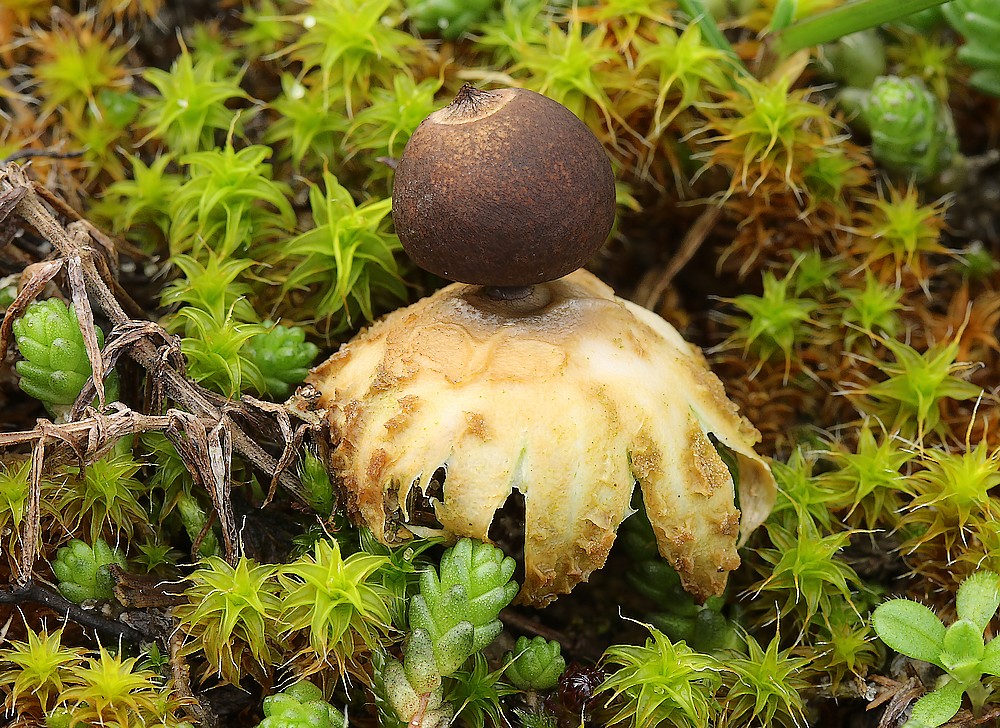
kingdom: Fungi
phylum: Basidiomycota
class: Agaricomycetes
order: Geastrales
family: Geastraceae
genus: Geastrum
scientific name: Geastrum striatum
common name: dværg-stjernebold
